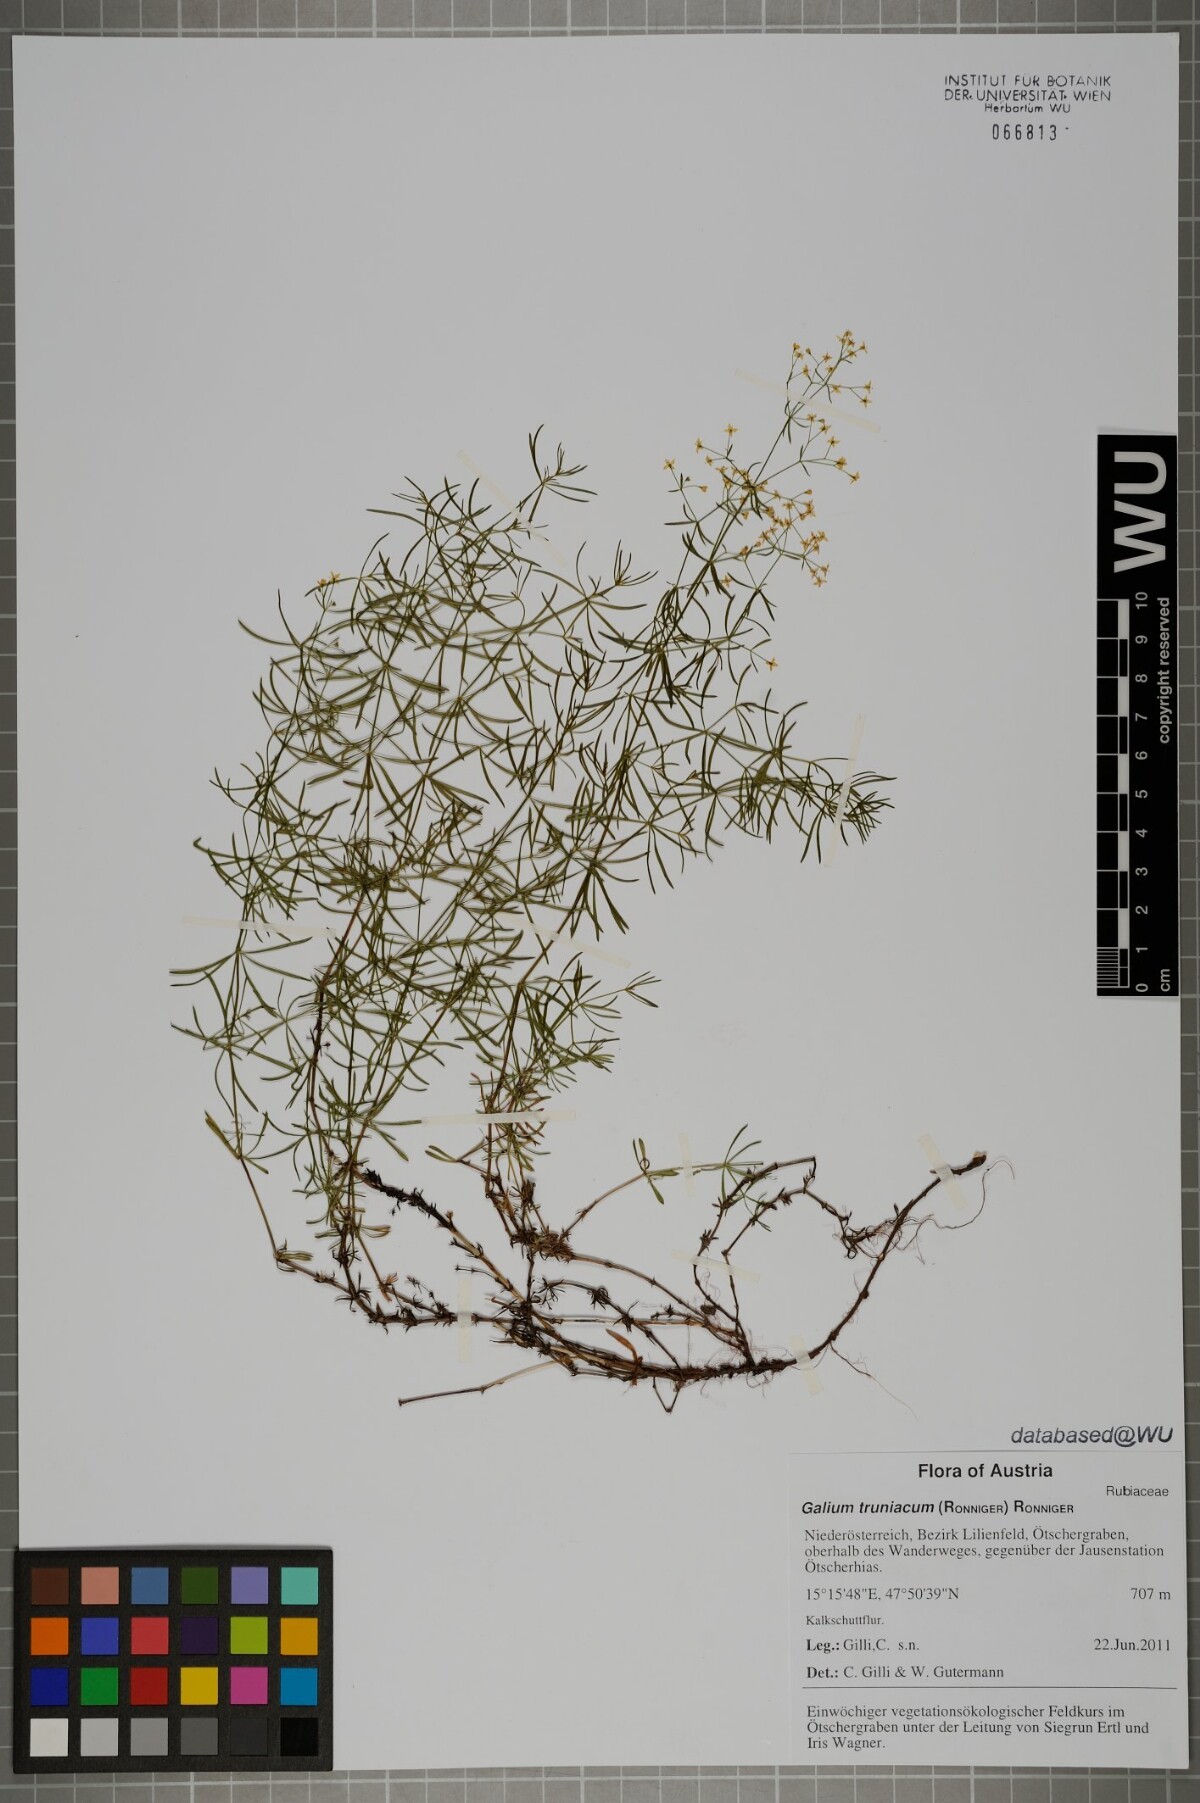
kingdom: Plantae
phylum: Tracheophyta
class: Magnoliopsida
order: Gentianales
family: Rubiaceae
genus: Galium
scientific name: Galium truniacum
